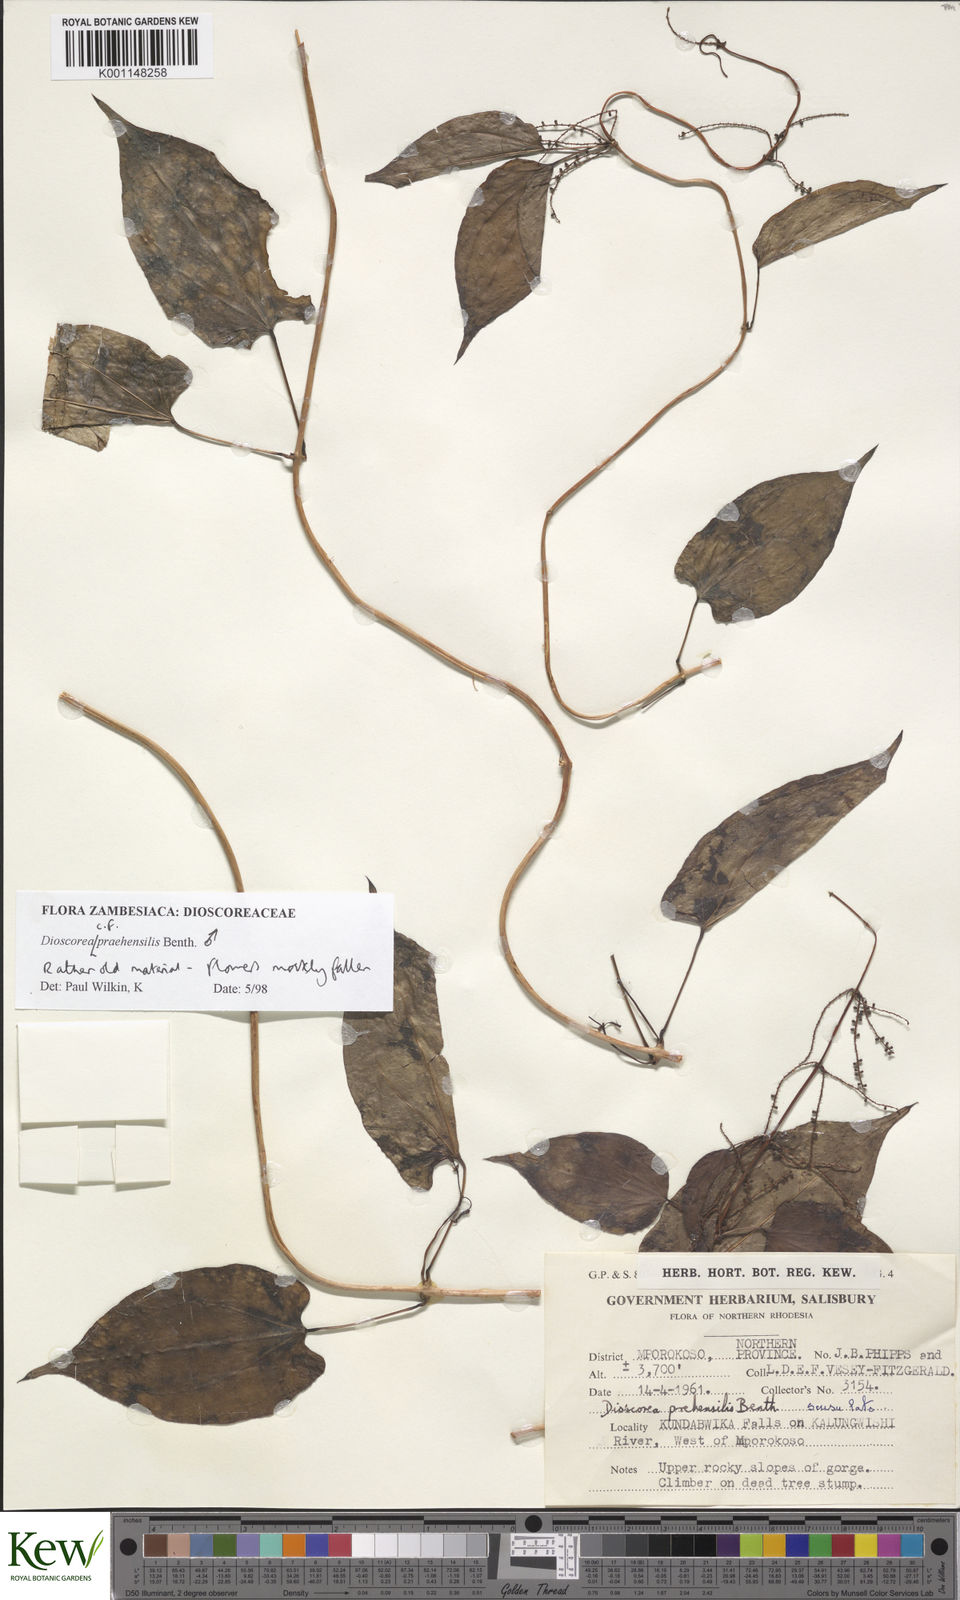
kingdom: Plantae
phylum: Tracheophyta
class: Liliopsida
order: Dioscoreales
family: Dioscoreaceae
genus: Dioscorea
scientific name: Dioscorea praehensilis
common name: Bush yam
